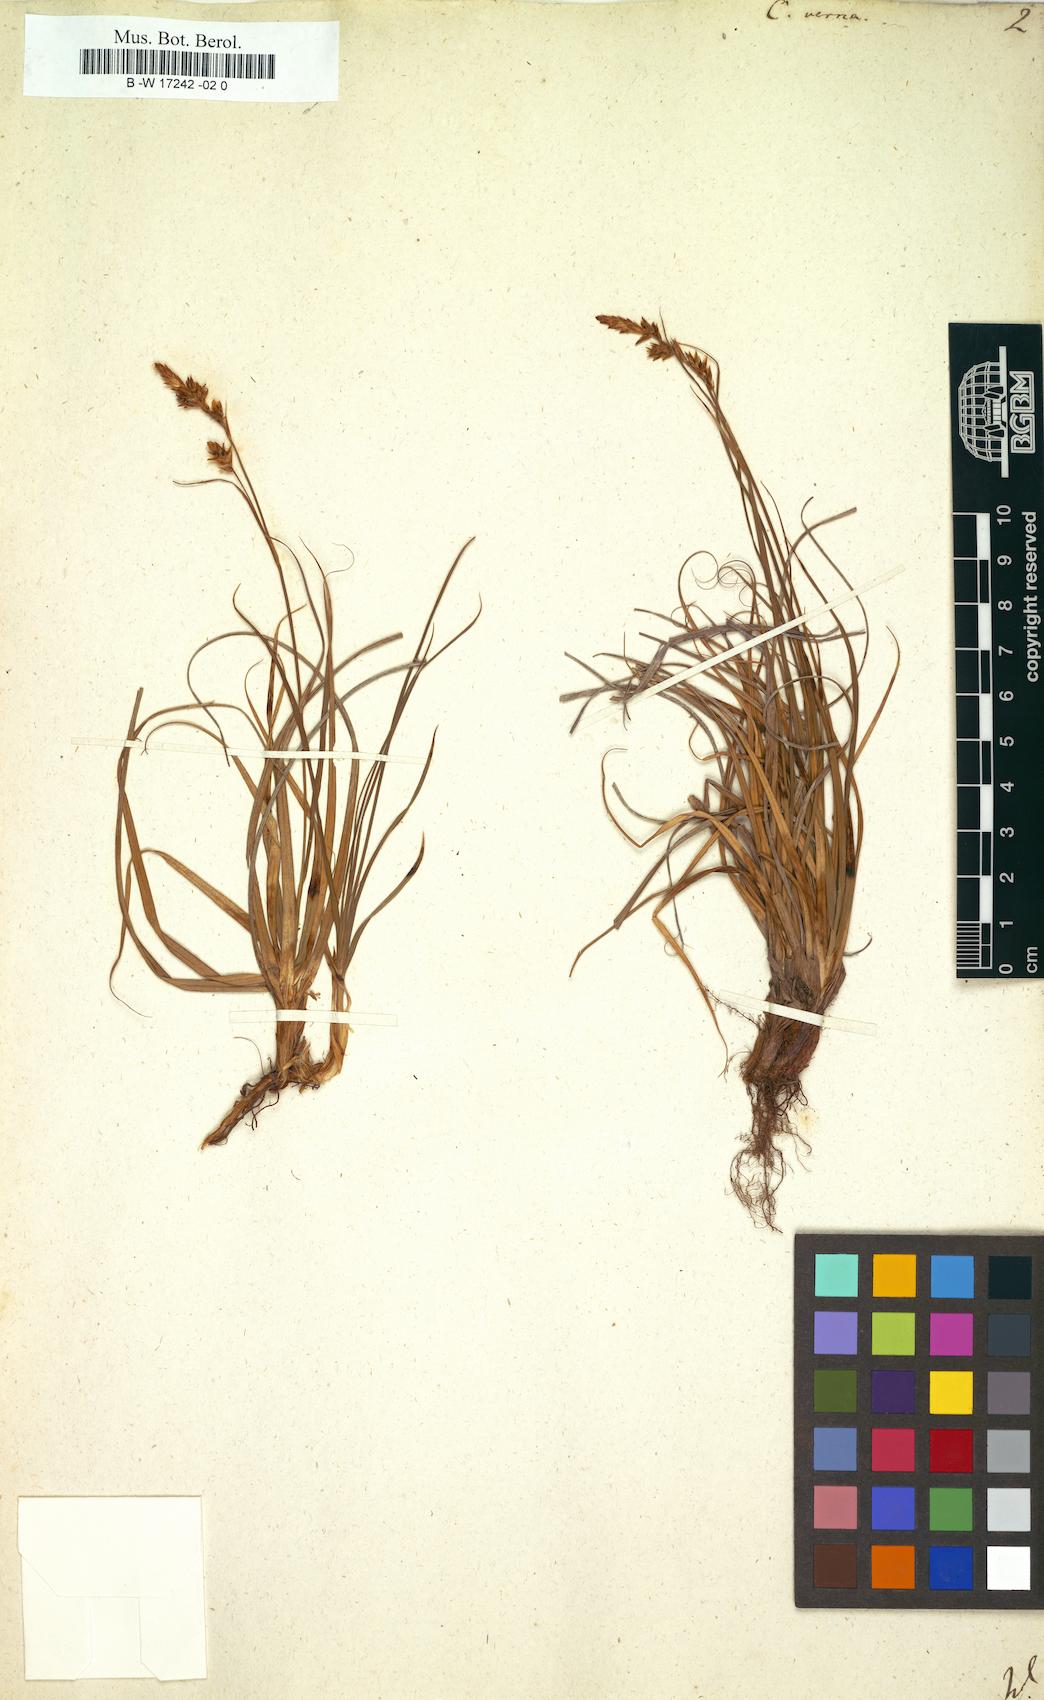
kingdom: Plantae
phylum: Tracheophyta
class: Liliopsida
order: Poales
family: Cyperaceae
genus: Carex
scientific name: Carex
